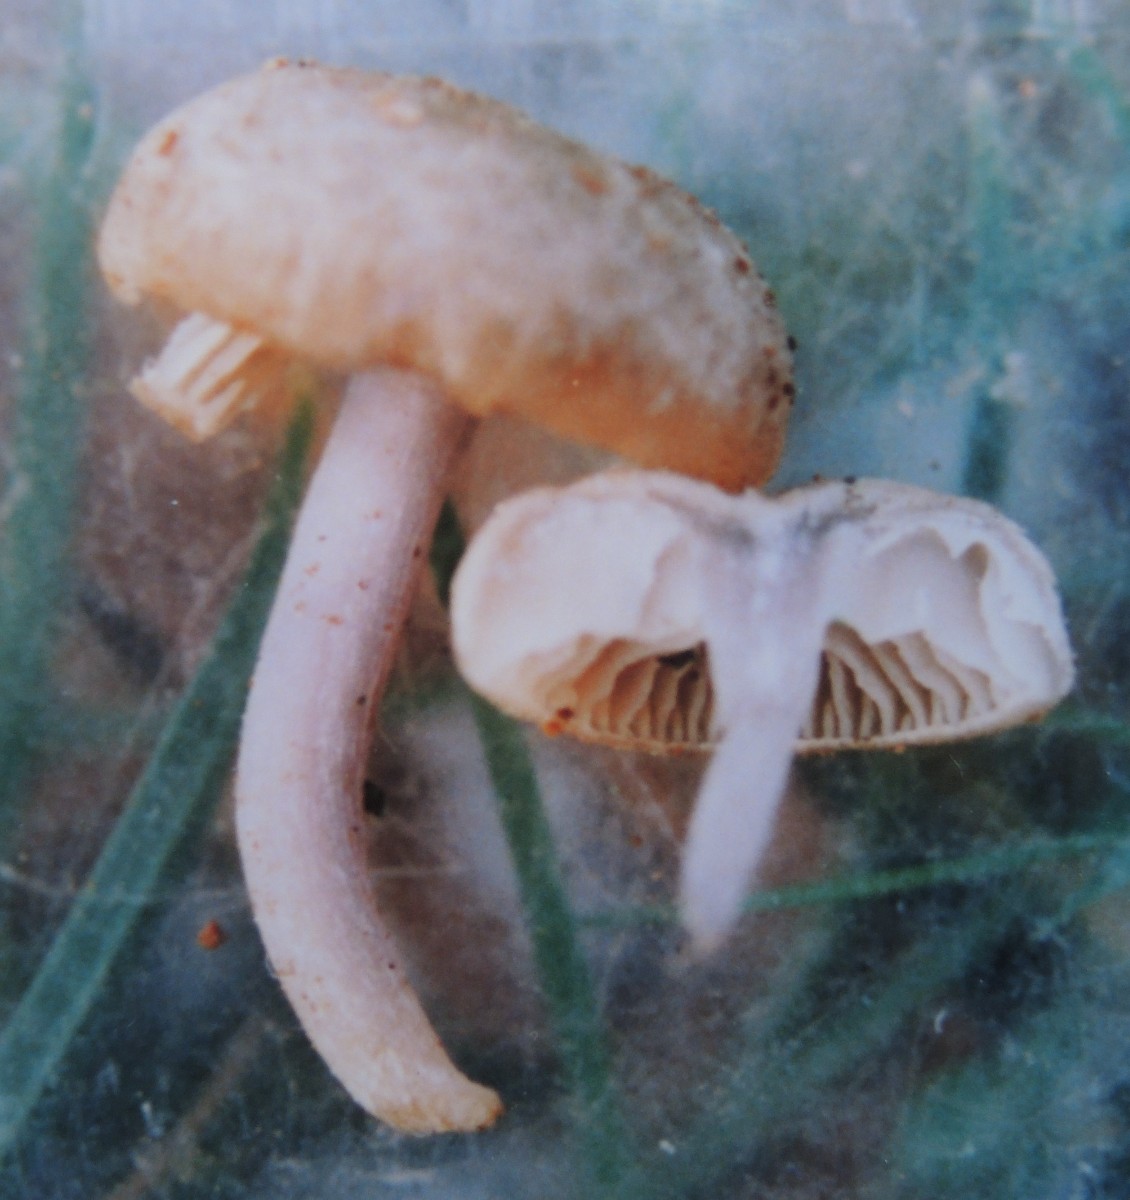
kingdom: Fungi
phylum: Basidiomycota
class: Agaricomycetes
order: Agaricales
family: Entolomataceae
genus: Entoloma
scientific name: Entoloma zuccherellii
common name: skærmhatagtig rødblad
